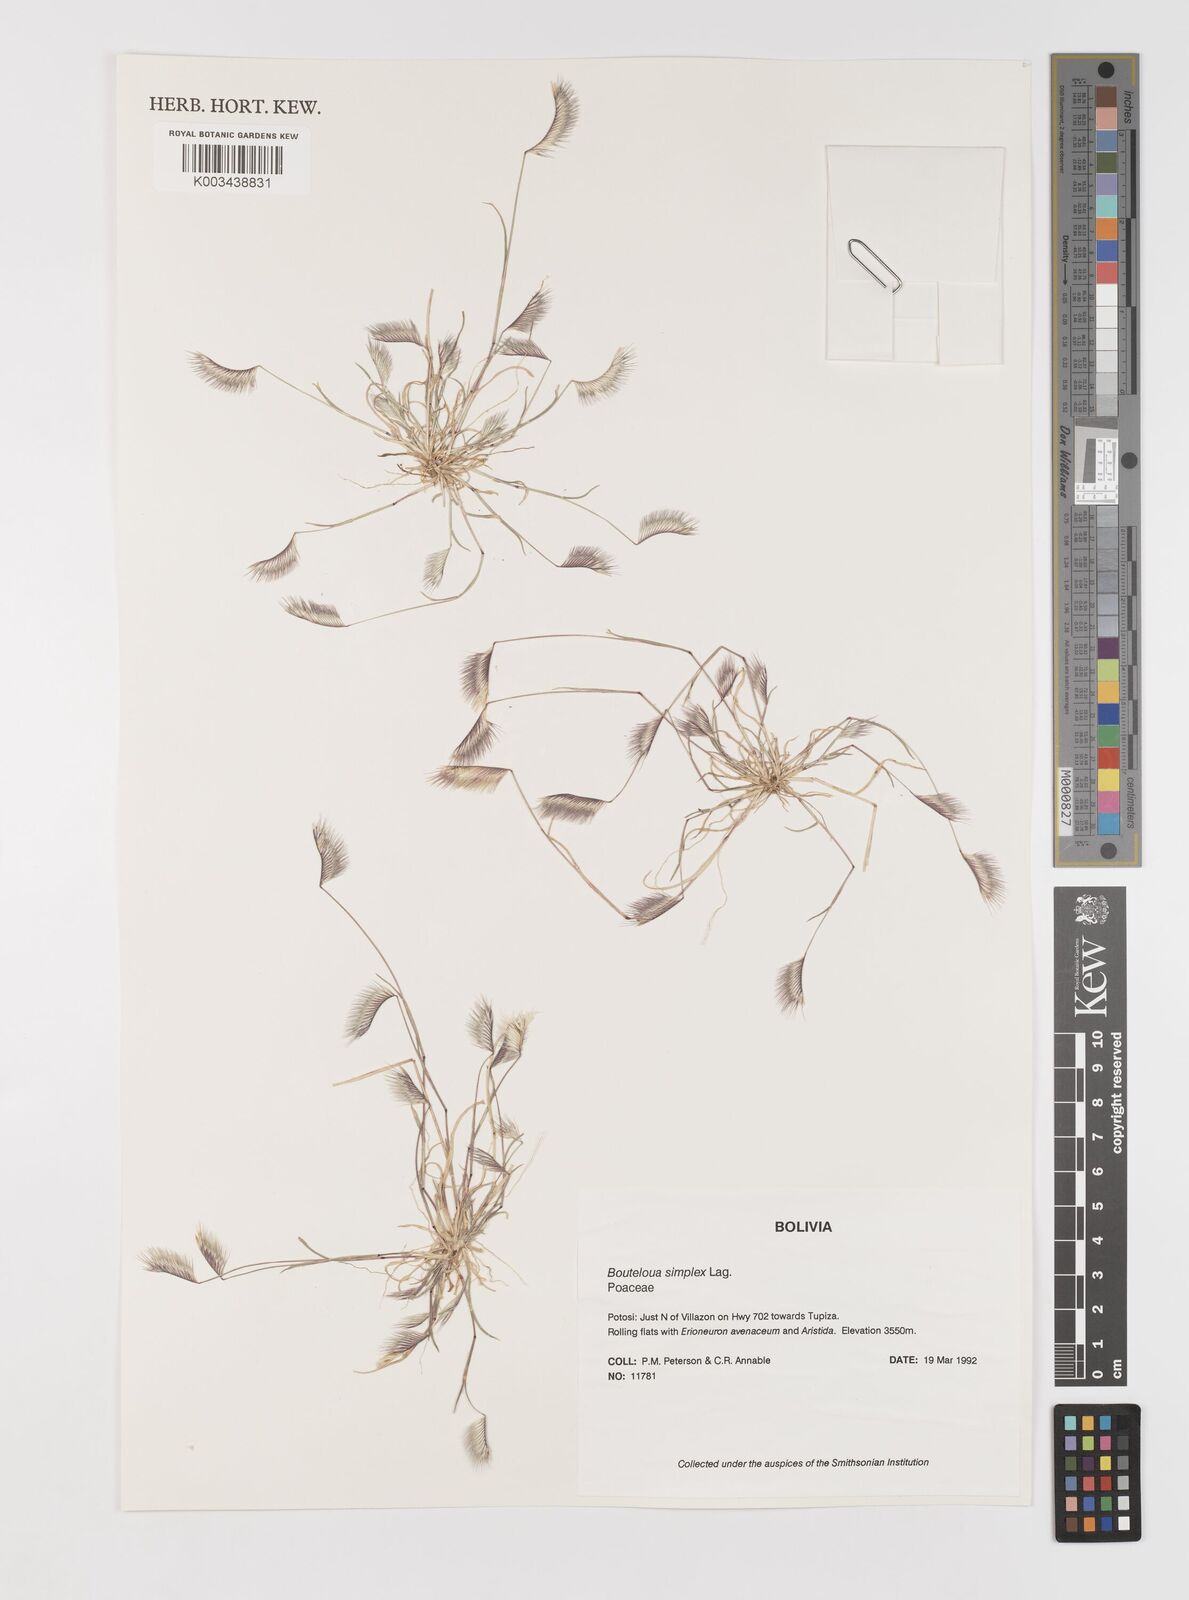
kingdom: Plantae
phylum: Tracheophyta
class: Liliopsida
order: Poales
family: Poaceae
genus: Bouteloua
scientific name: Bouteloua simplex
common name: Mat grama
